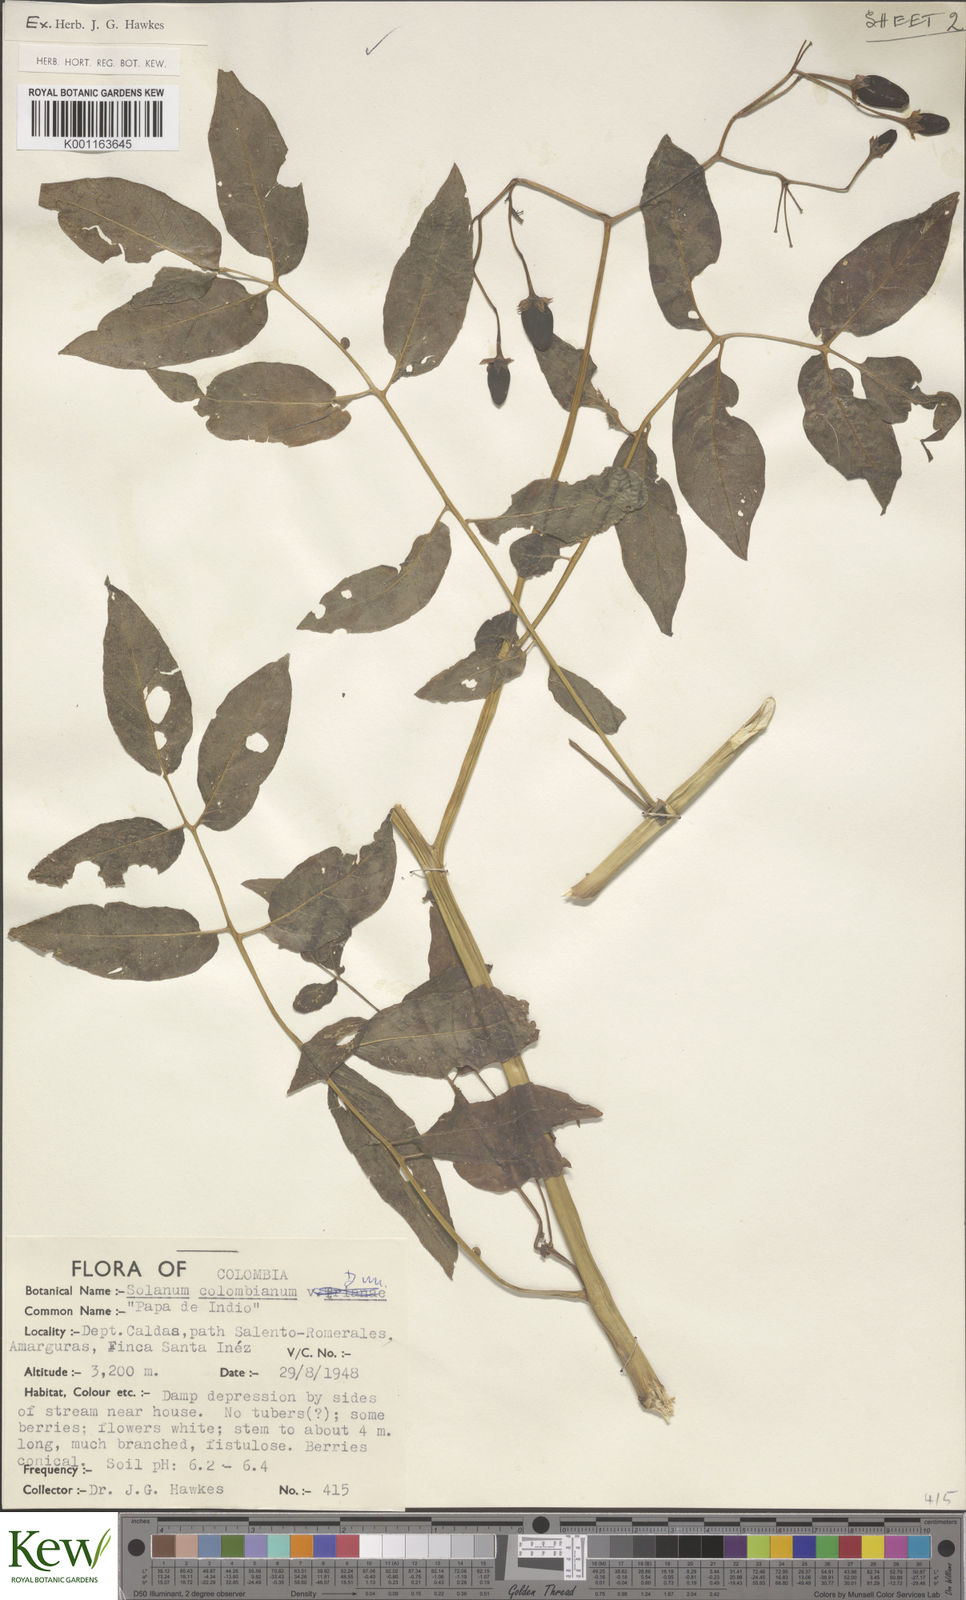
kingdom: Plantae
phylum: Tracheophyta
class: Magnoliopsida
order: Solanales
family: Solanaceae
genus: Solanum
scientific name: Solanum colombianum
